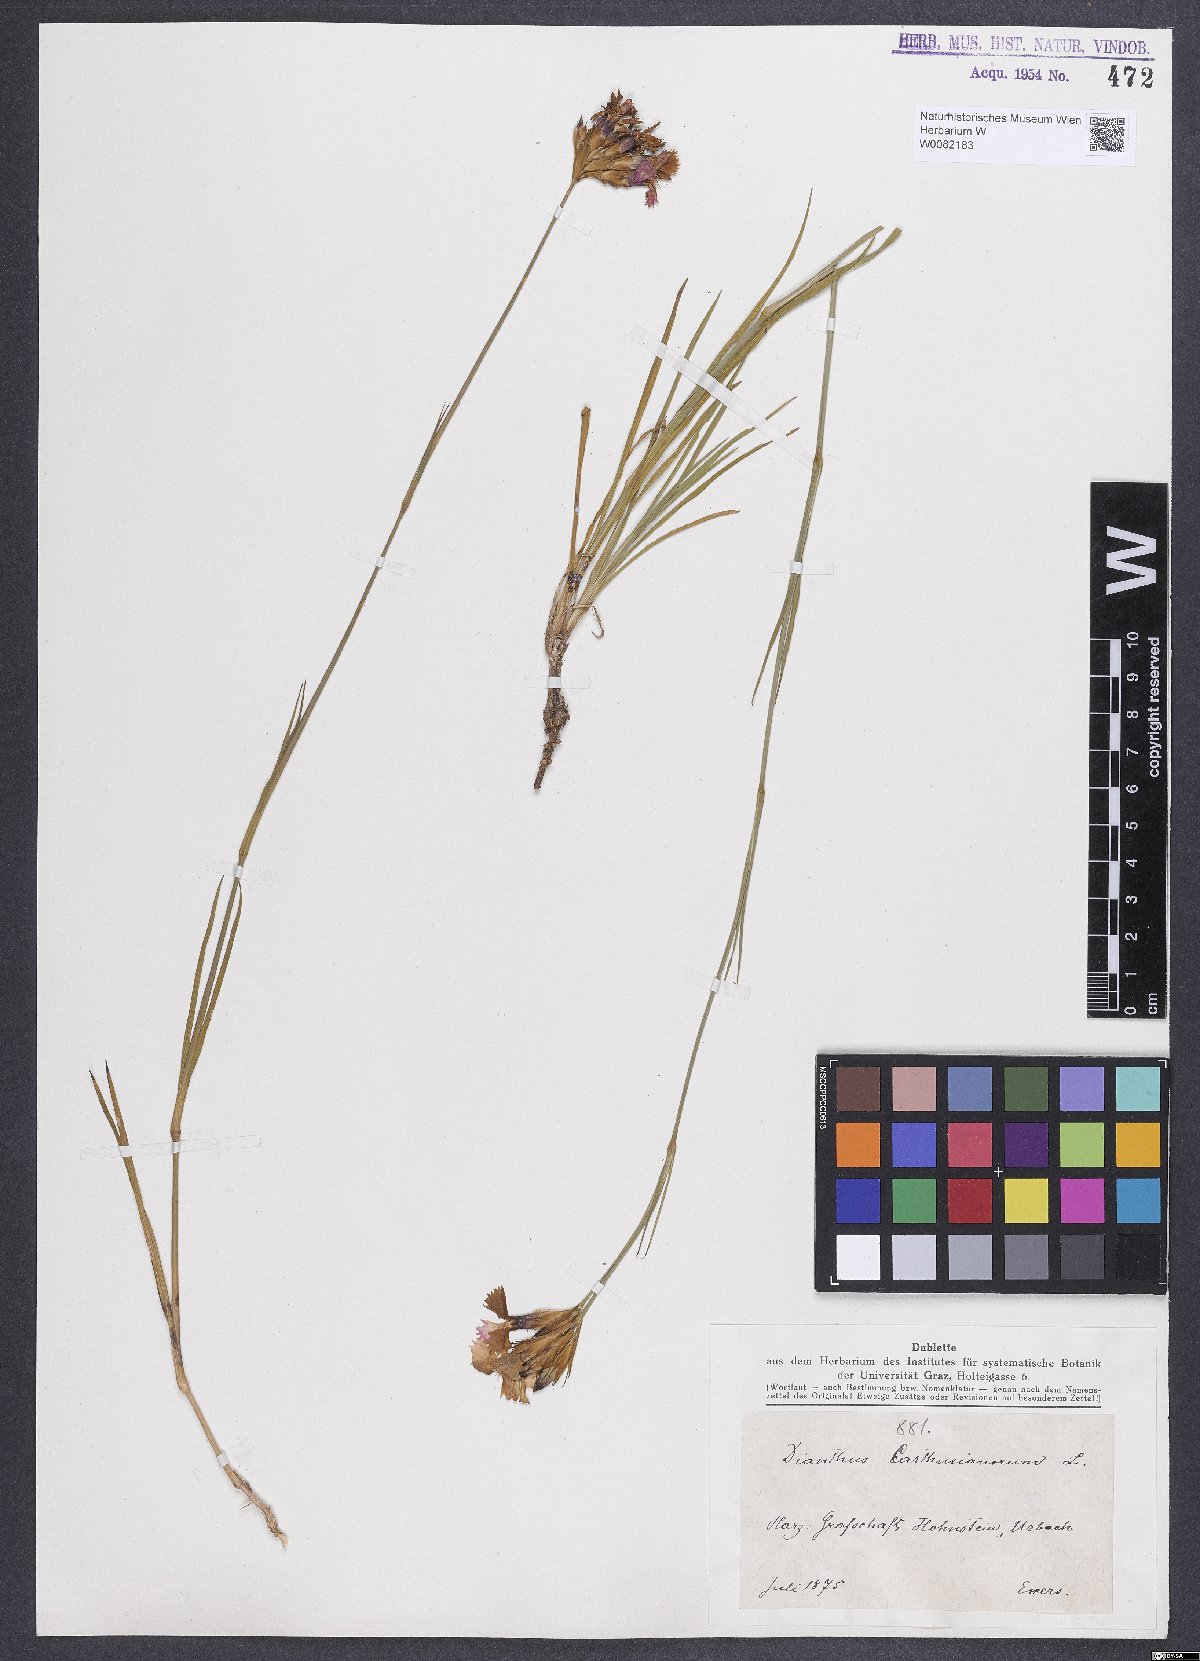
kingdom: Plantae
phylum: Tracheophyta
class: Magnoliopsida
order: Caryophyllales
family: Caryophyllaceae
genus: Dianthus
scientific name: Dianthus carthusianorum
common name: Carthusian pink
